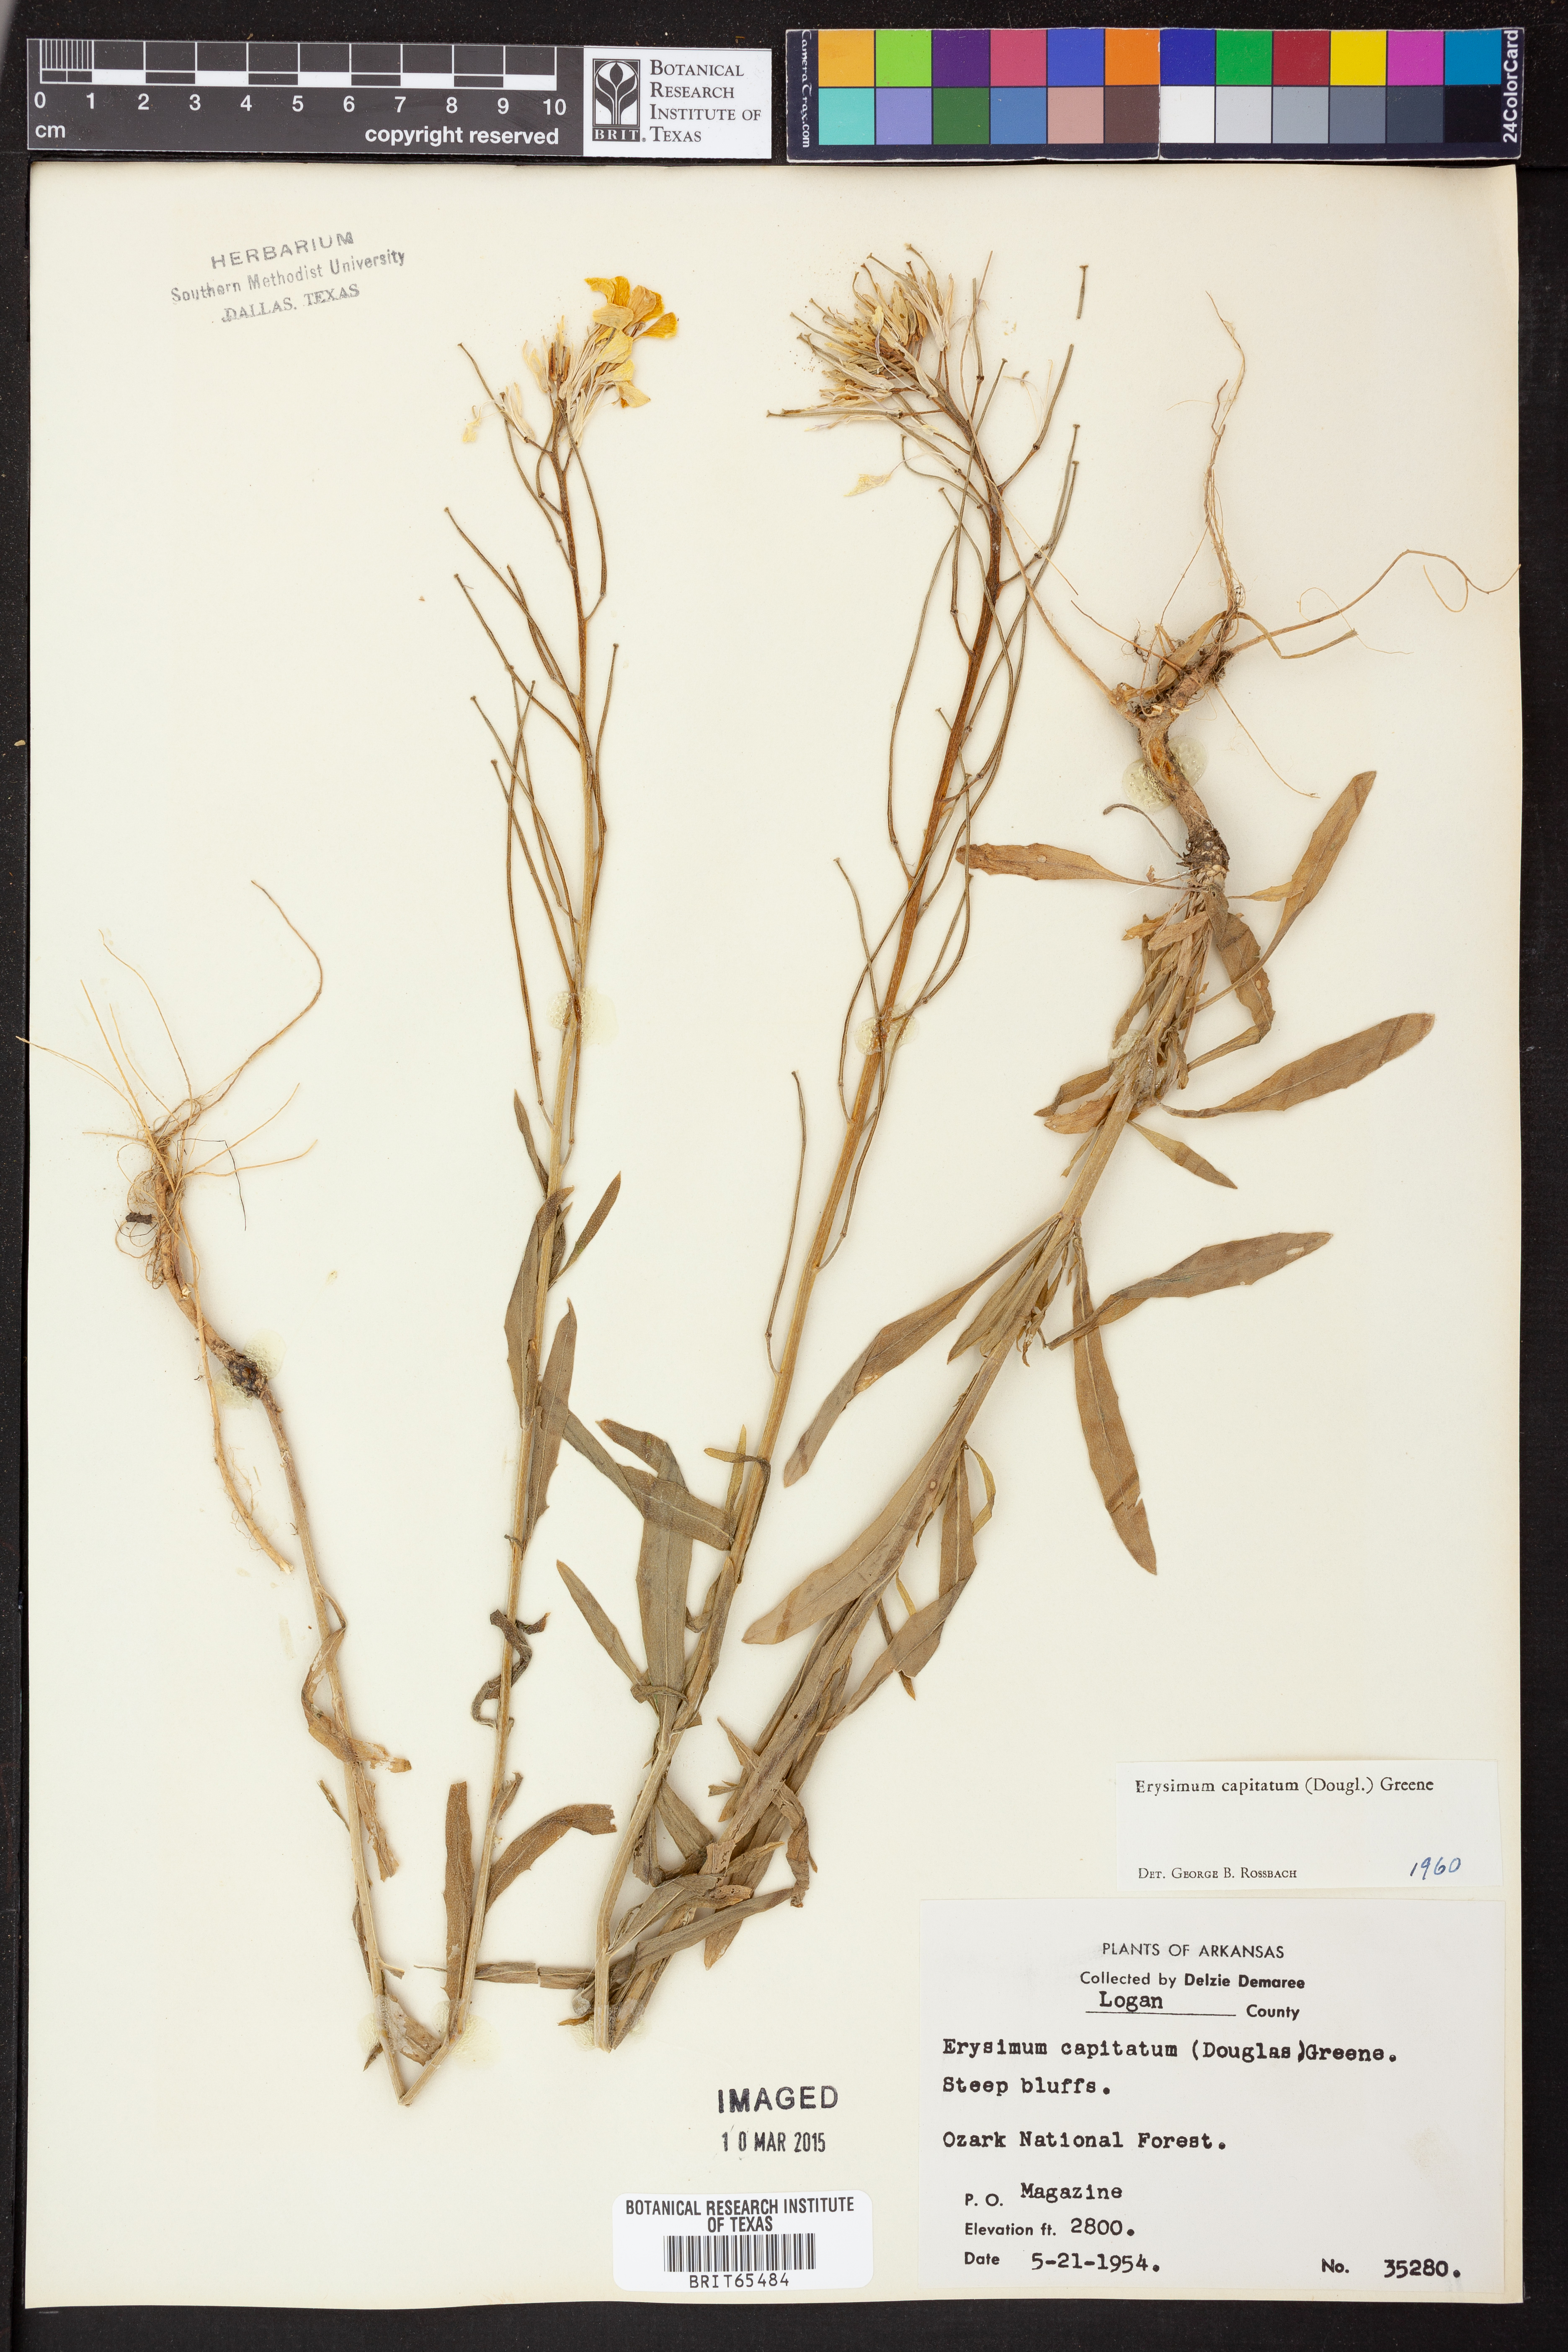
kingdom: Plantae
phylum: Tracheophyta
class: Magnoliopsida
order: Brassicales
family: Brassicaceae
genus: Erysimum
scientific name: Erysimum capitatum
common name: Western wallflower
